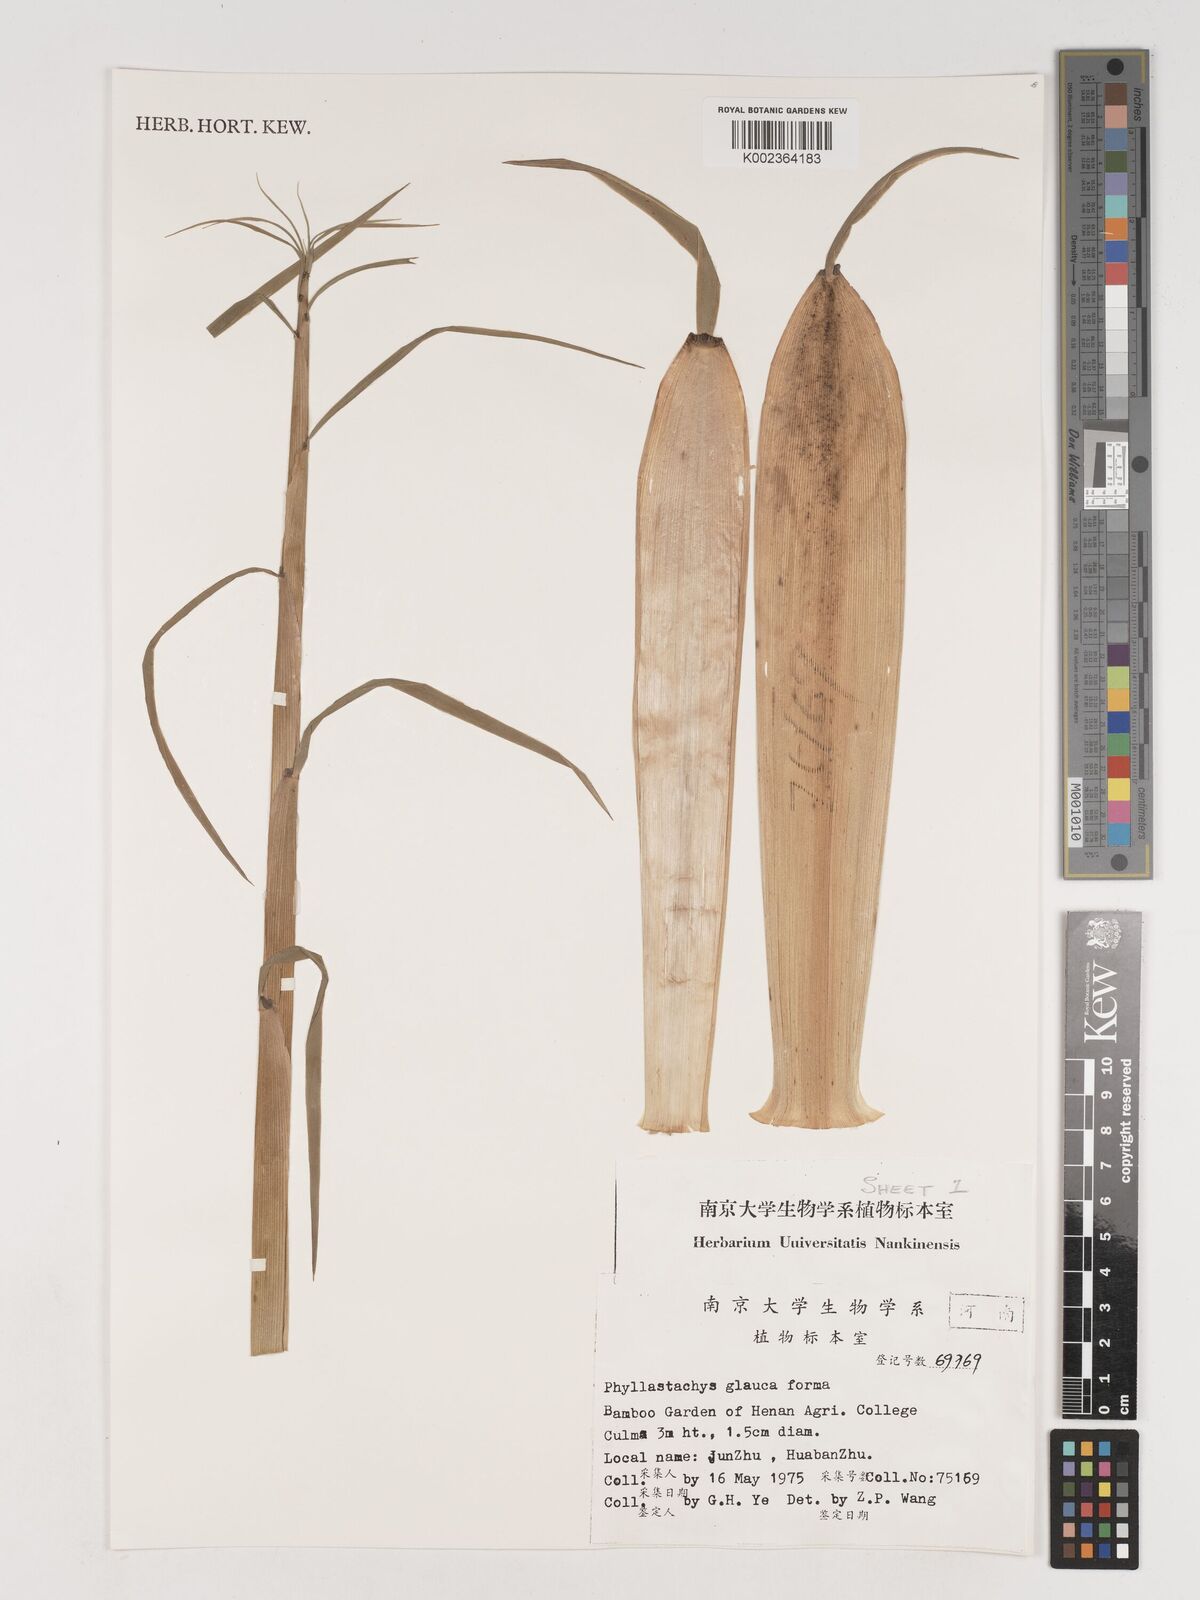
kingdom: Plantae
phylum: Tracheophyta
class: Liliopsida
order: Poales
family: Poaceae
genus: Phyllostachys
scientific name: Phyllostachys glauca
